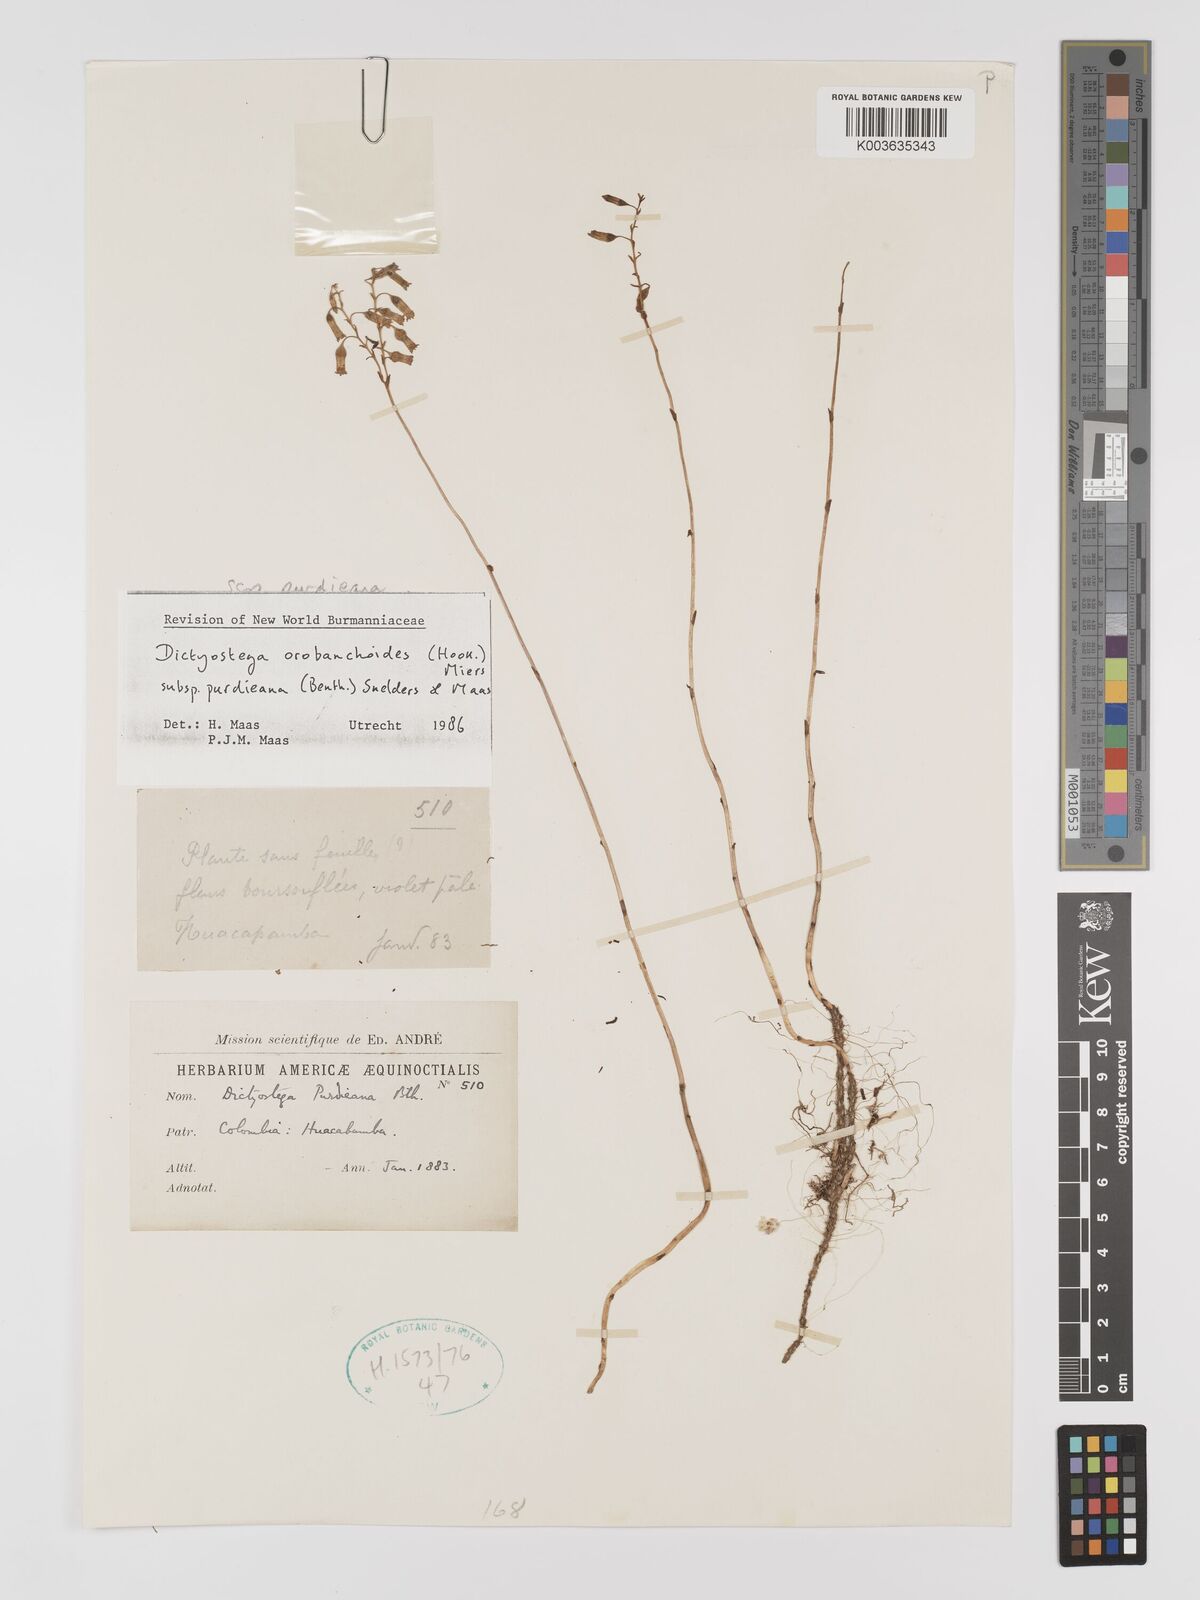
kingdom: Plantae
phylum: Tracheophyta
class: Liliopsida
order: Dioscoreales
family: Burmanniaceae
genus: Dictyostega
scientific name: Dictyostega orobanchoides
